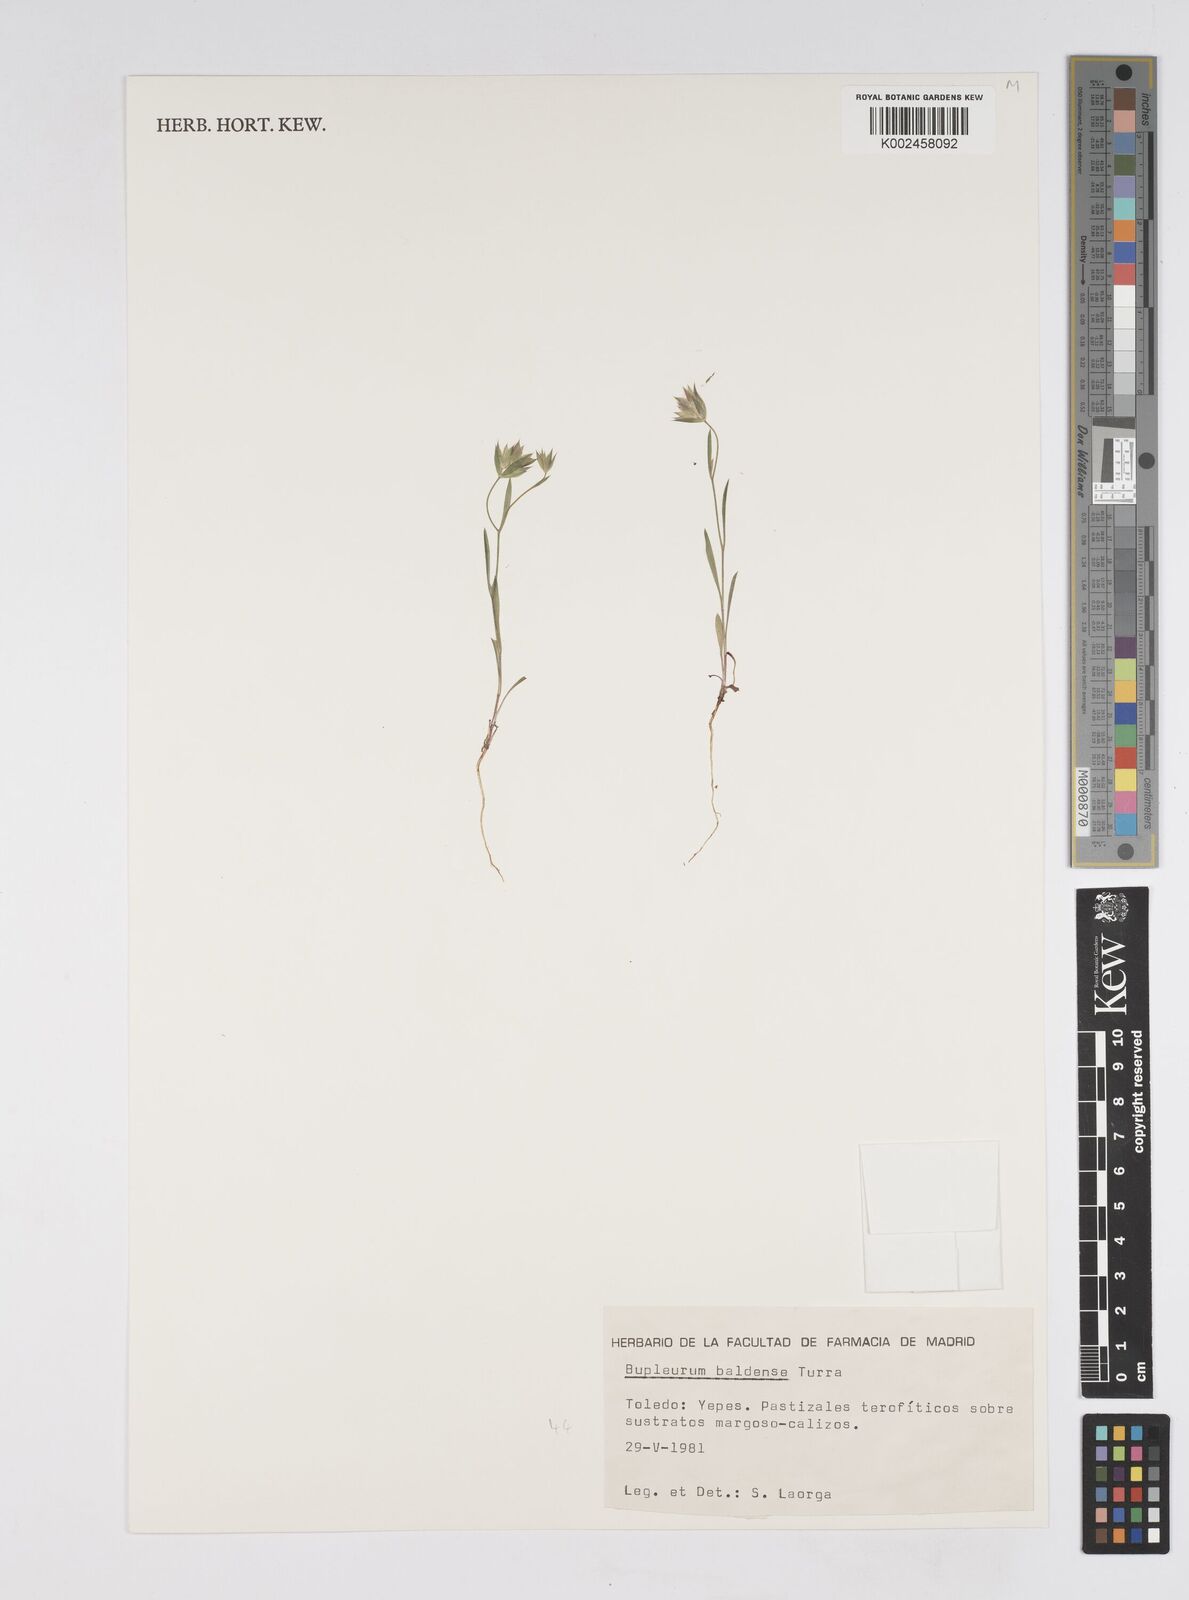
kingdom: Plantae
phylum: Tracheophyta
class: Magnoliopsida
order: Apiales
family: Apiaceae
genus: Bupleurum
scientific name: Bupleurum baldense
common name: Small hare's-ear
